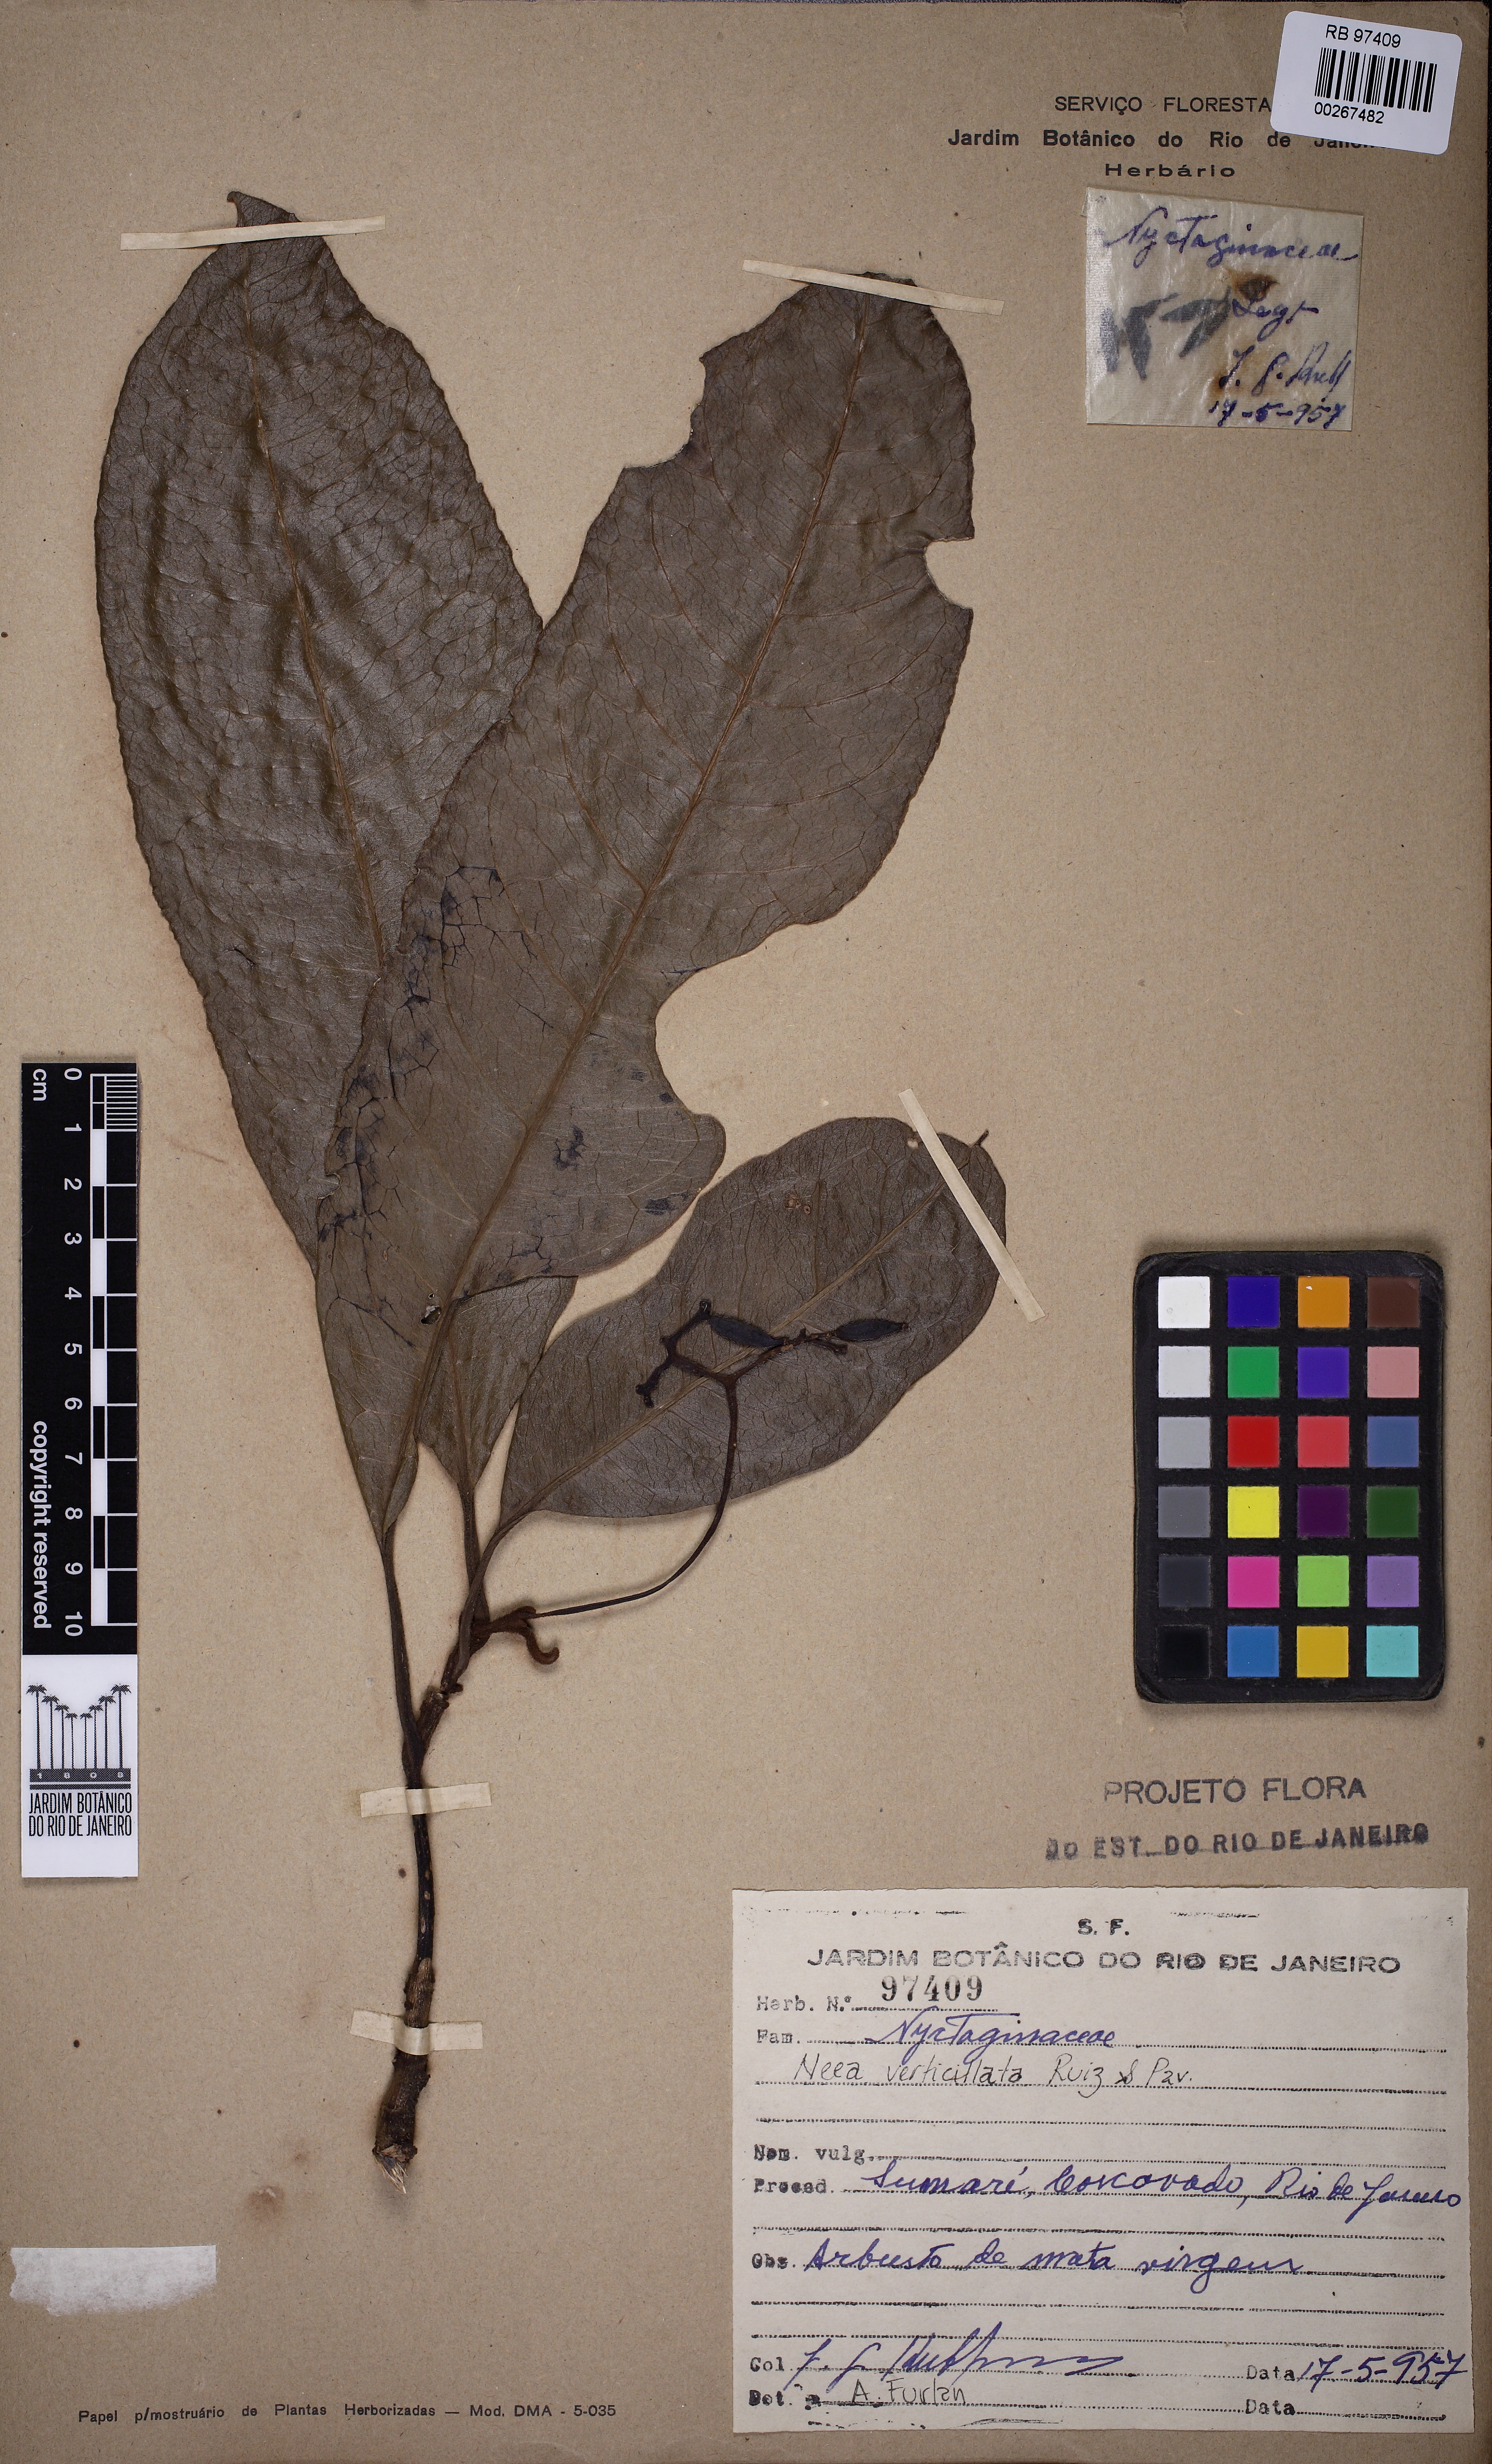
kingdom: Plantae
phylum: Tracheophyta
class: Magnoliopsida
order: Caryophyllales
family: Nyctaginaceae
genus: Neea
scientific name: Neea verticillata
